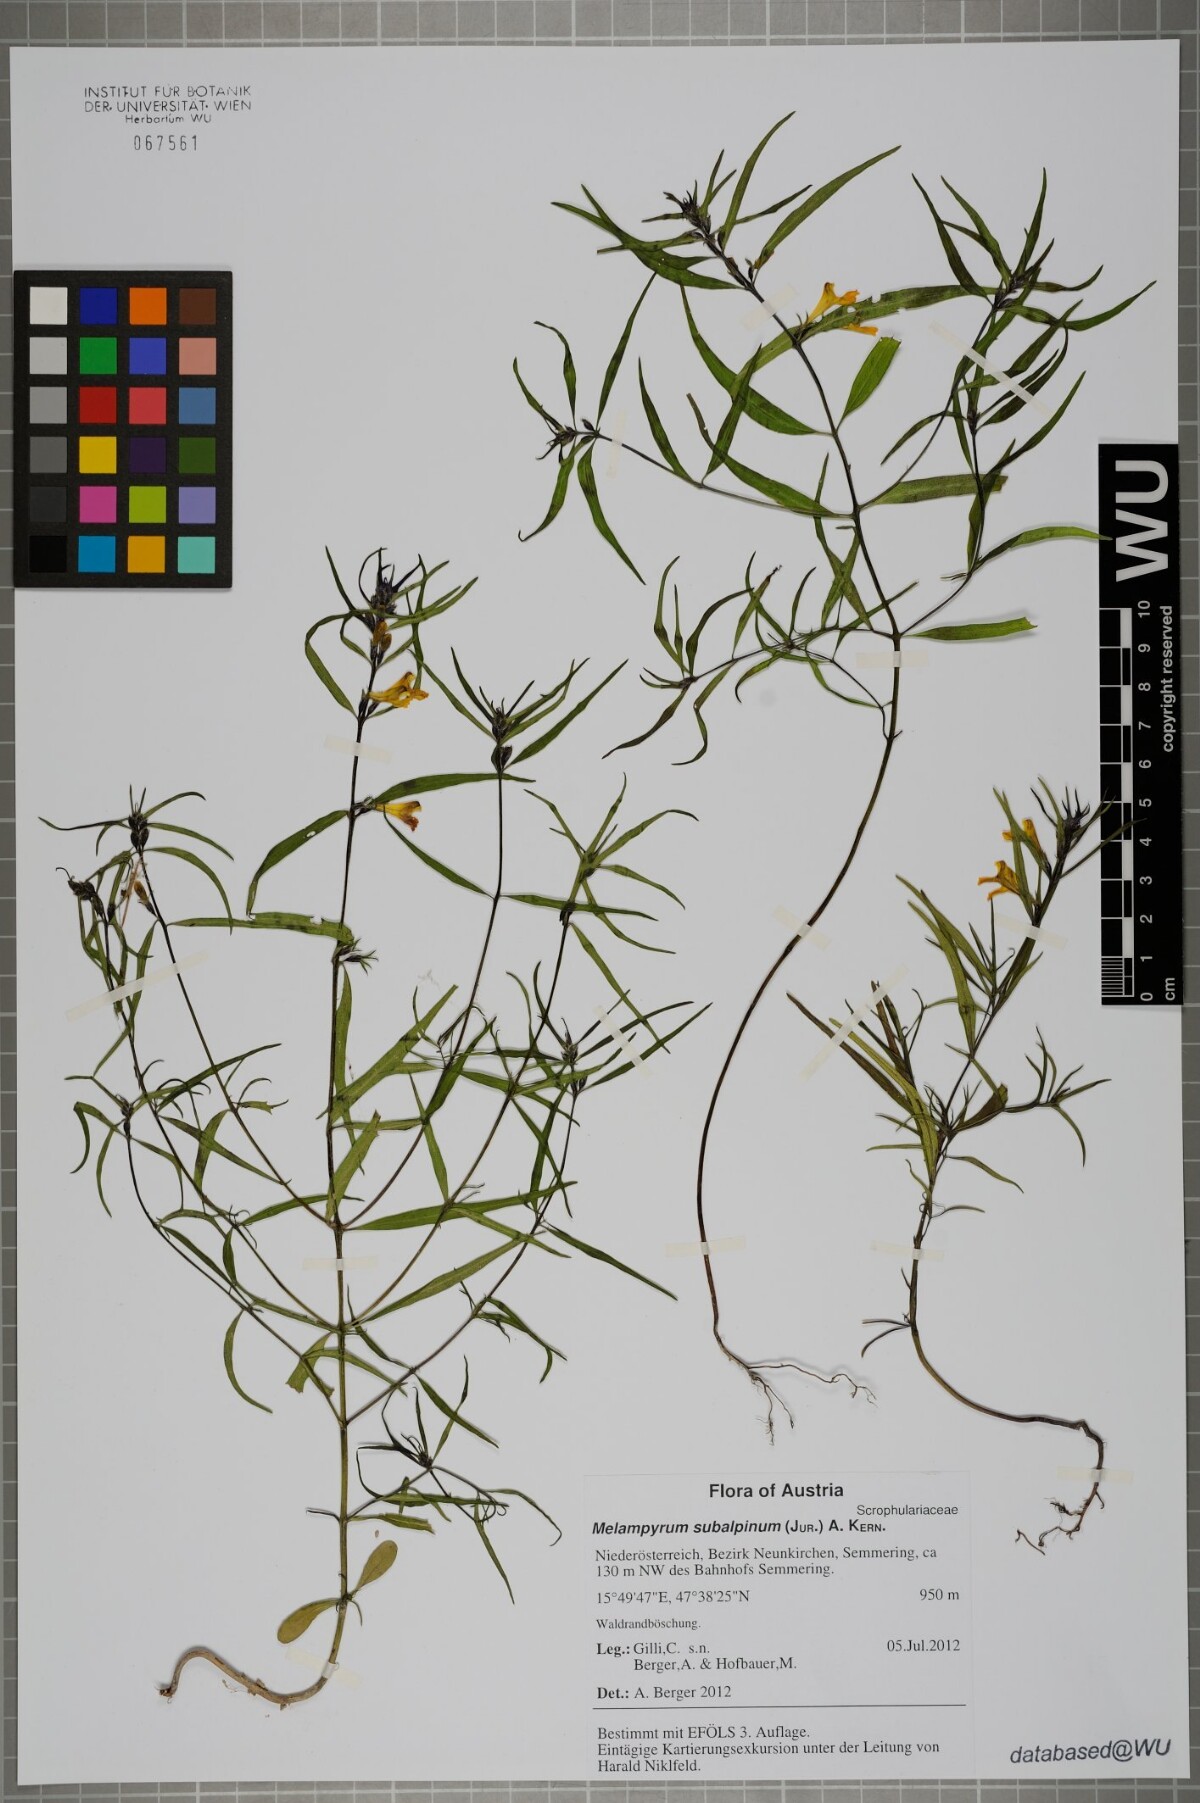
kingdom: Plantae
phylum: Tracheophyta
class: Magnoliopsida
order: Lamiales
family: Orobanchaceae
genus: Melampyrum
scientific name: Melampyrum subalpinum
